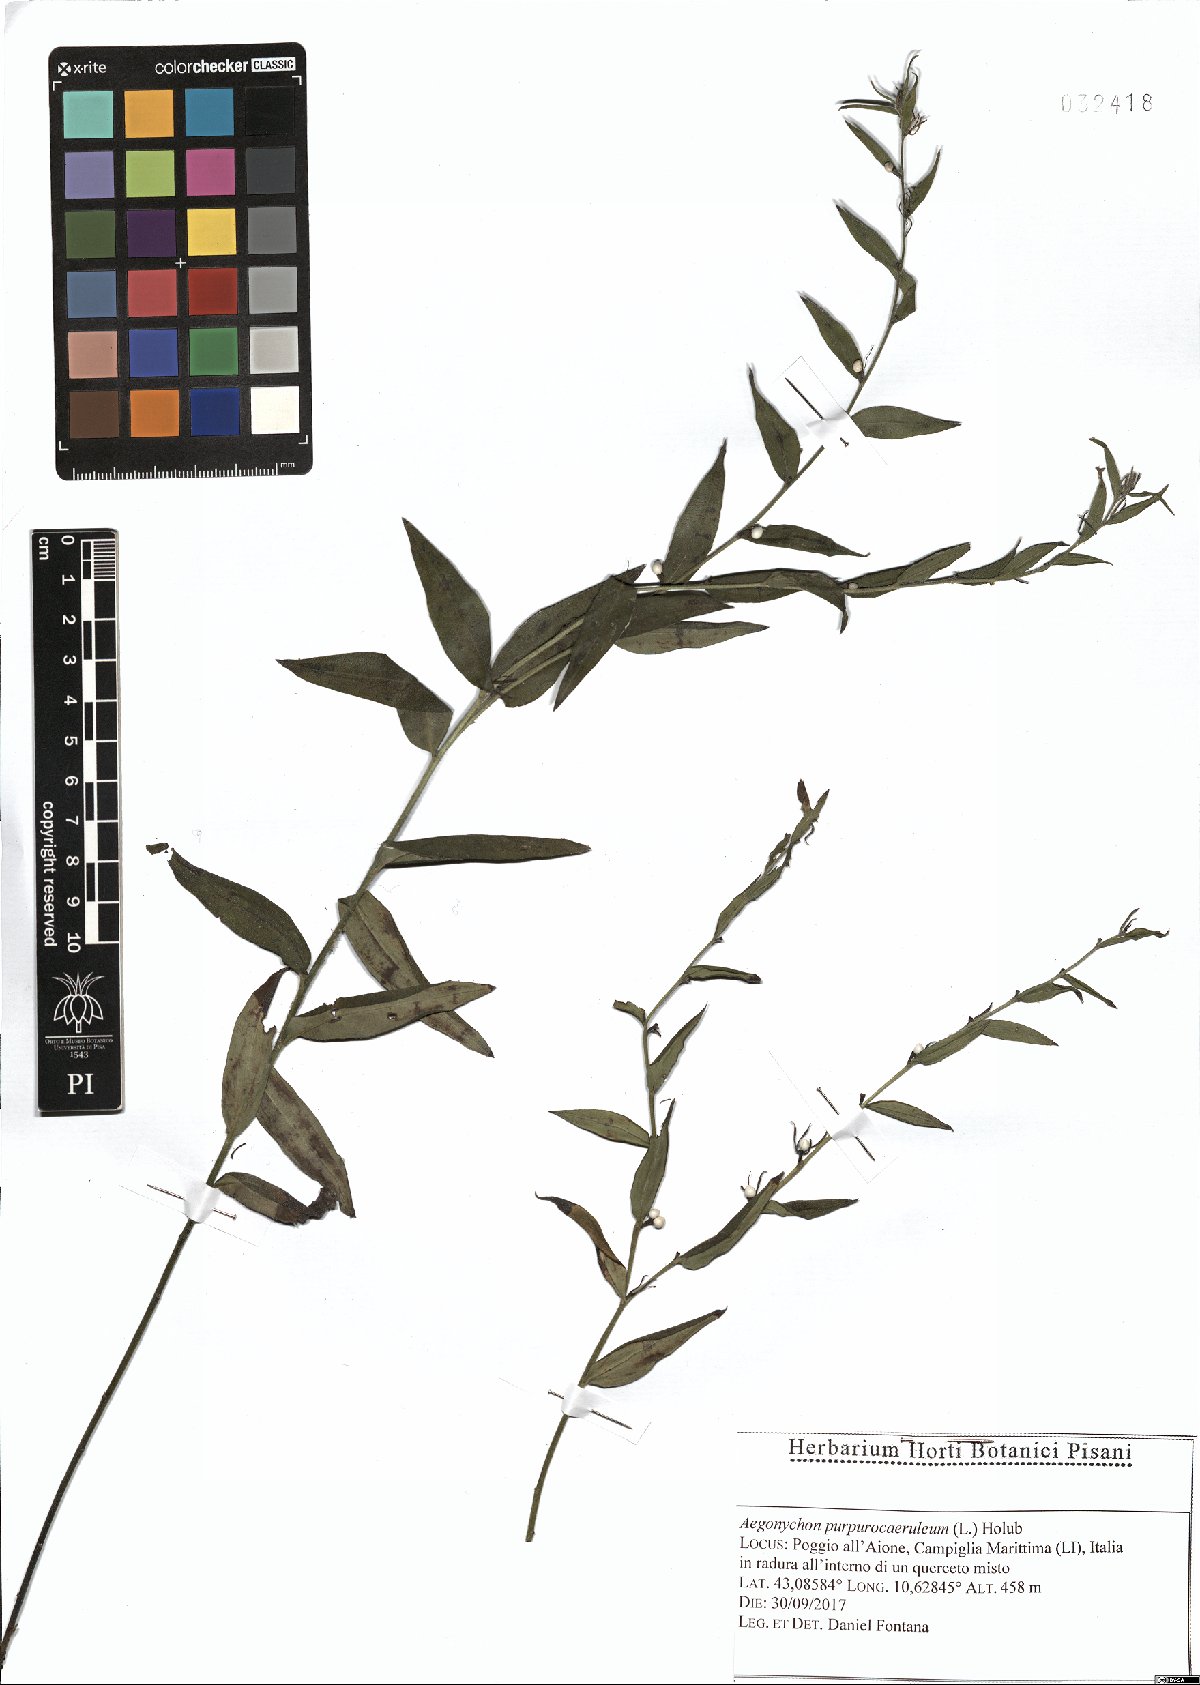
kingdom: Plantae
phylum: Tracheophyta
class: Magnoliopsida
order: Boraginales
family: Boraginaceae
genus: Aegonychon
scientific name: Aegonychon purpurocaeruleum
